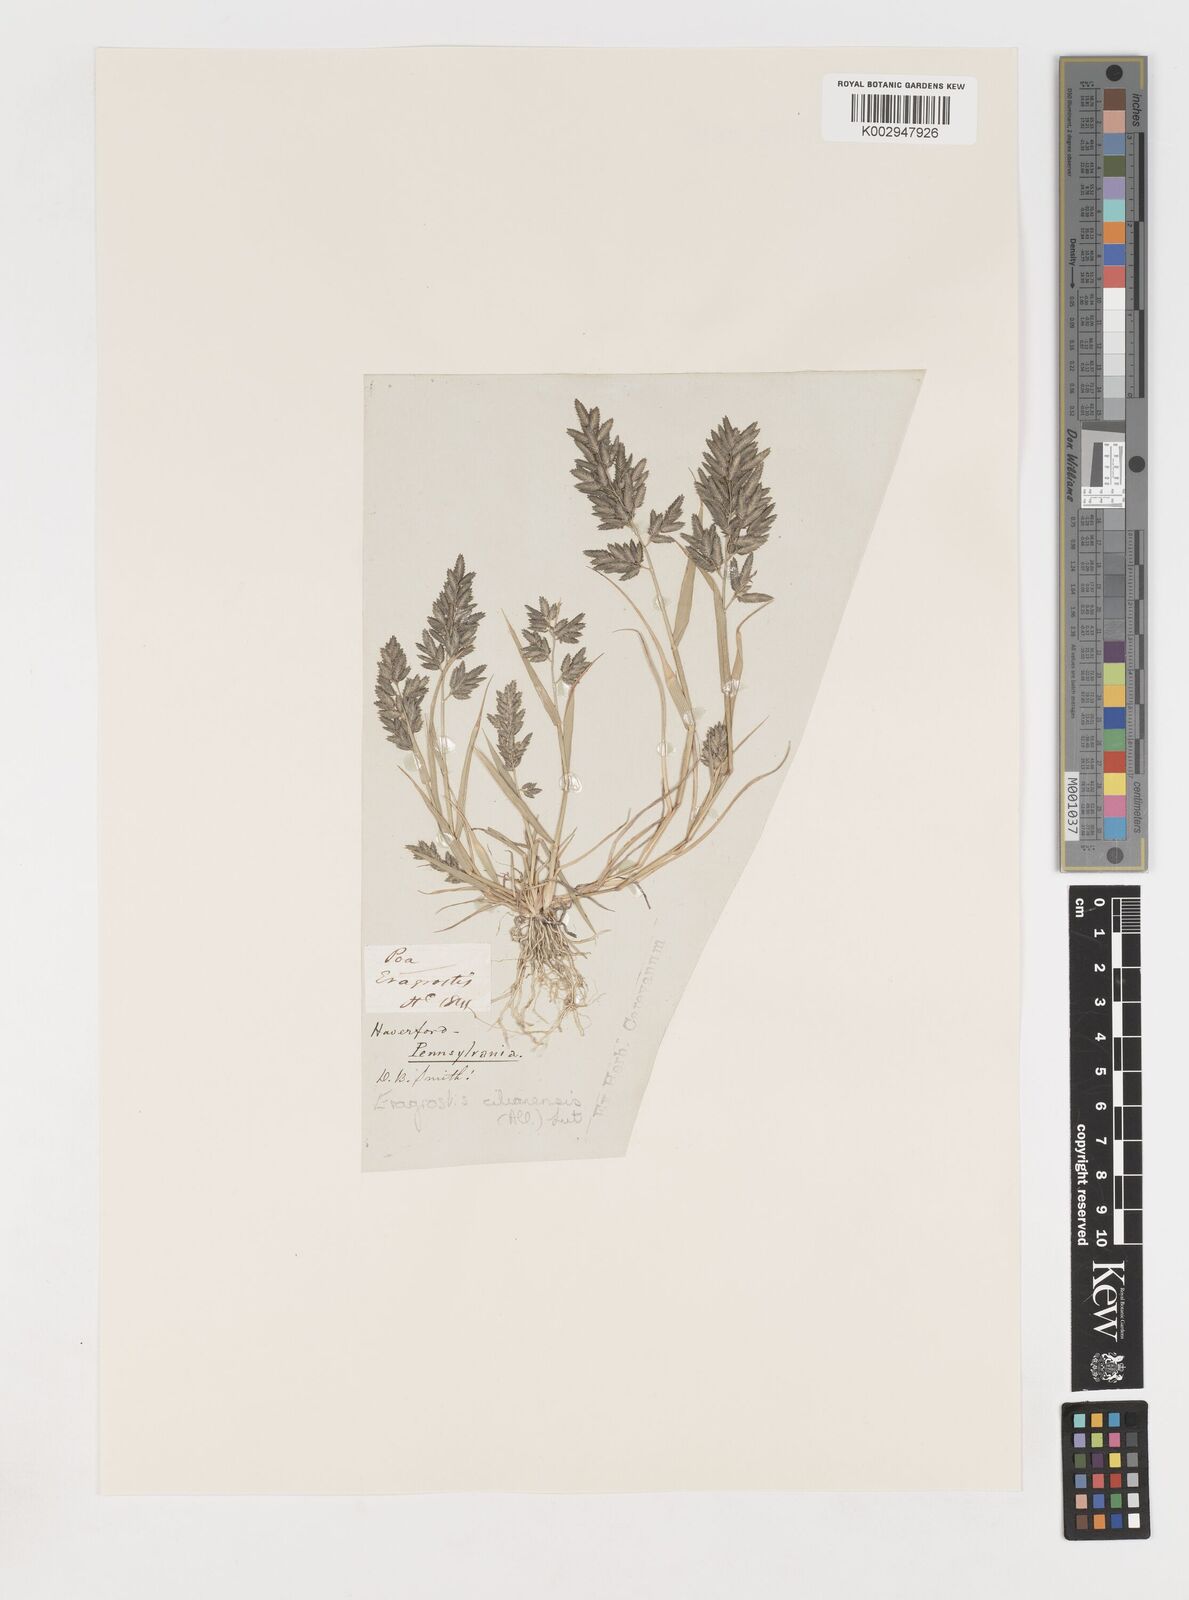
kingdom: Plantae
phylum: Tracheophyta
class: Liliopsida
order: Poales
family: Poaceae
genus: Eragrostis
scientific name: Eragrostis
